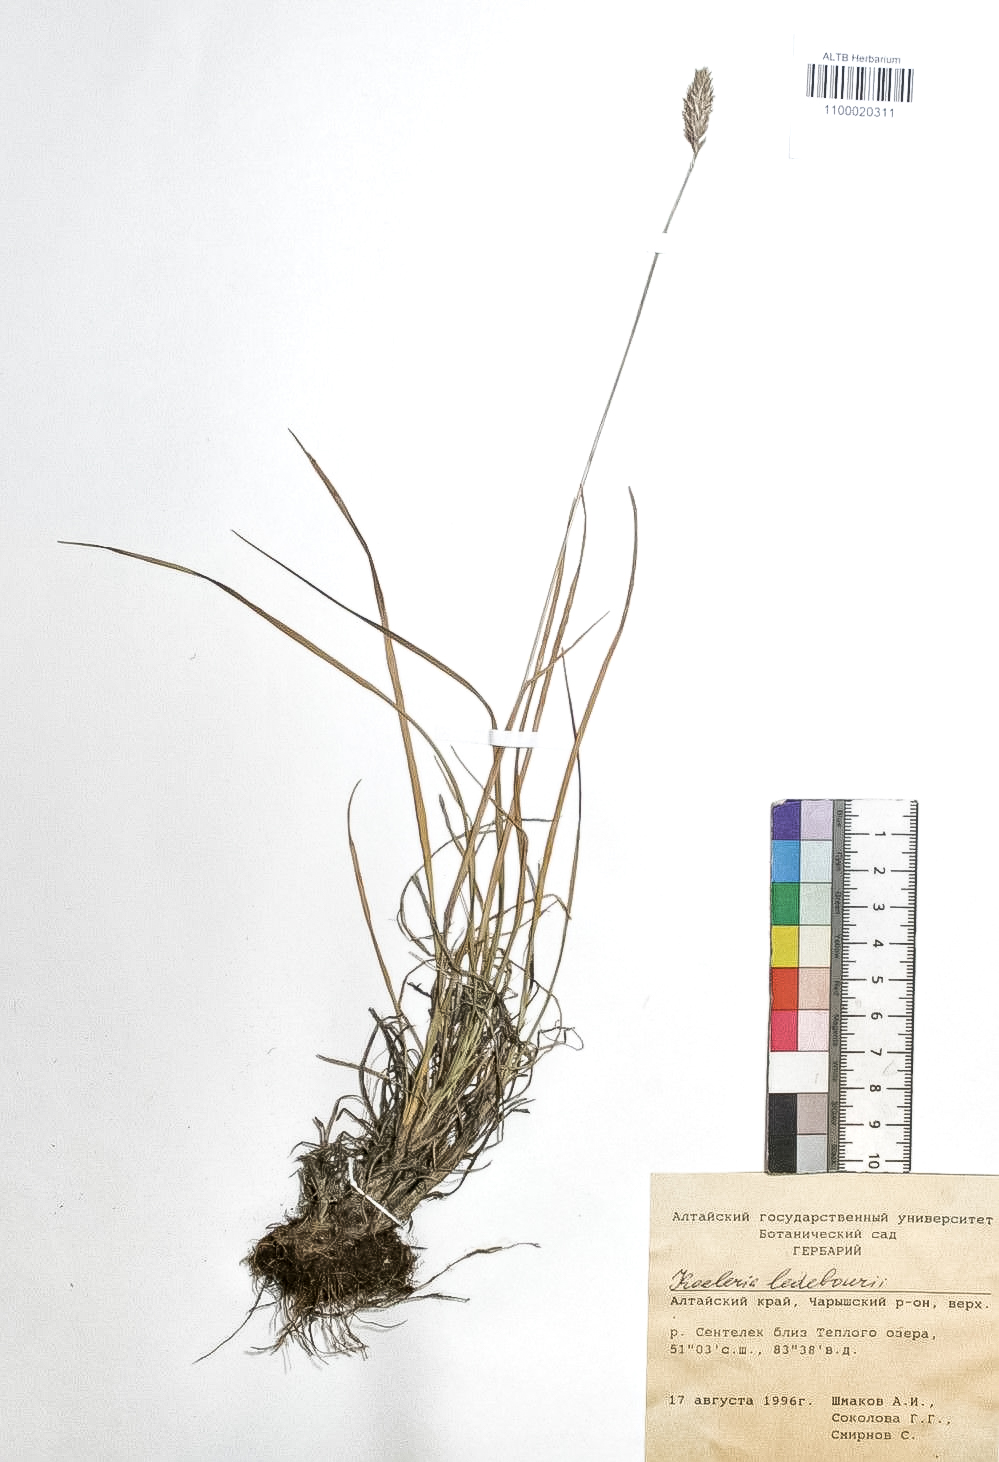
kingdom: Plantae
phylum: Tracheophyta
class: Liliopsida
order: Poales
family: Poaceae
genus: Koeleria
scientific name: Koeleria asiatica
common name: Eurasian junegrass
